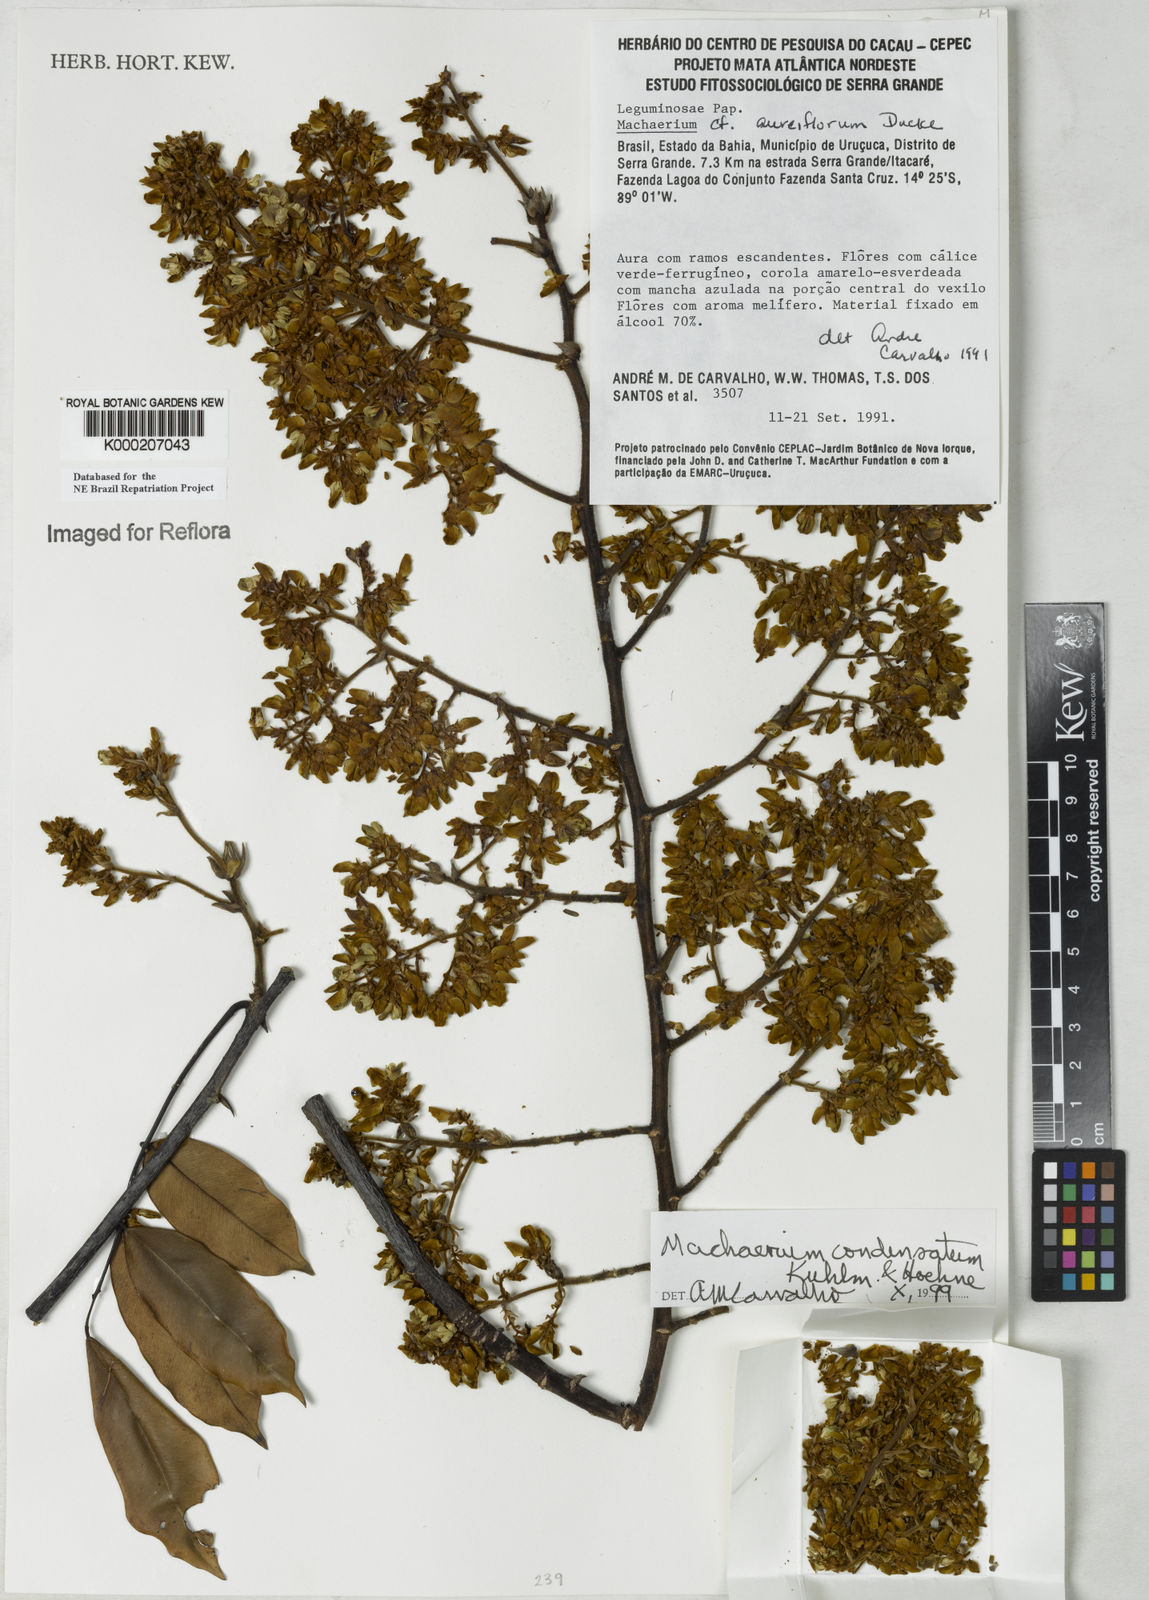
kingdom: Plantae
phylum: Tracheophyta
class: Magnoliopsida
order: Fabales
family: Fabaceae
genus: Machaerium
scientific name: Machaerium condensatum
